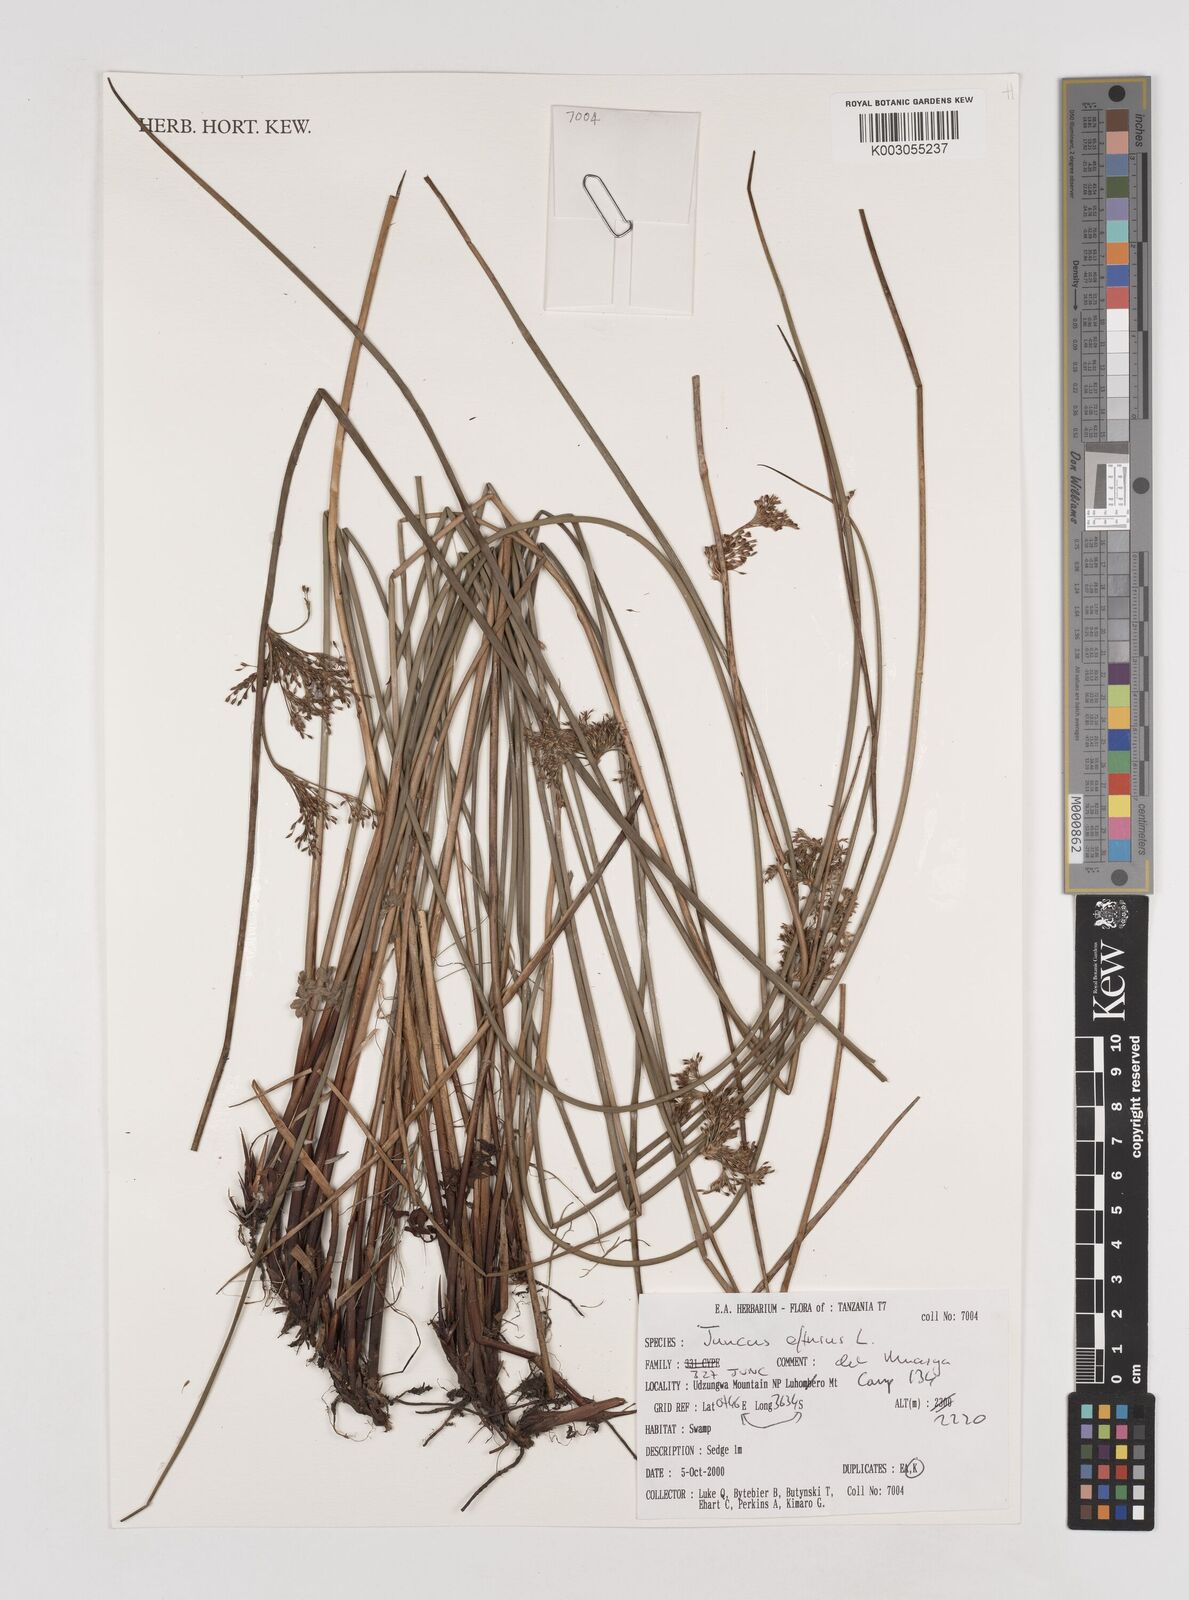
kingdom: Plantae
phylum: Tracheophyta
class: Liliopsida
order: Poales
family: Juncaceae
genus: Juncus
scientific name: Juncus effusus
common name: Soft rush
